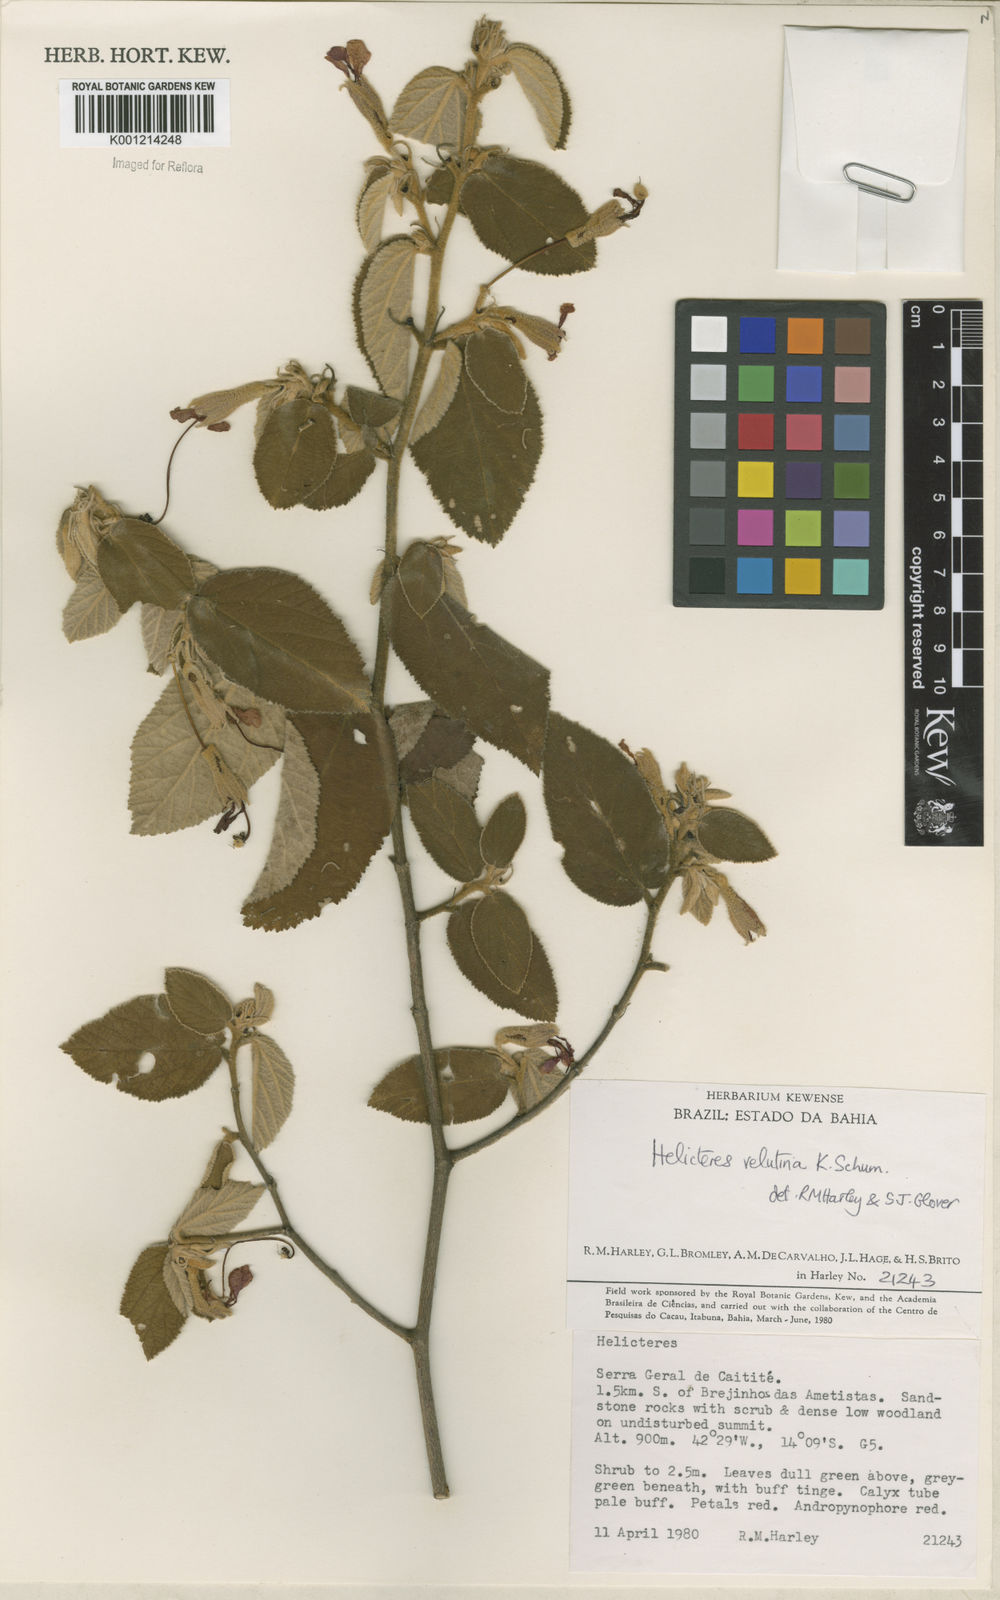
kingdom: Plantae
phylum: Tracheophyta
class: Magnoliopsida
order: Malvales
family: Malvaceae
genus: Helicteres
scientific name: Helicteres velutina
